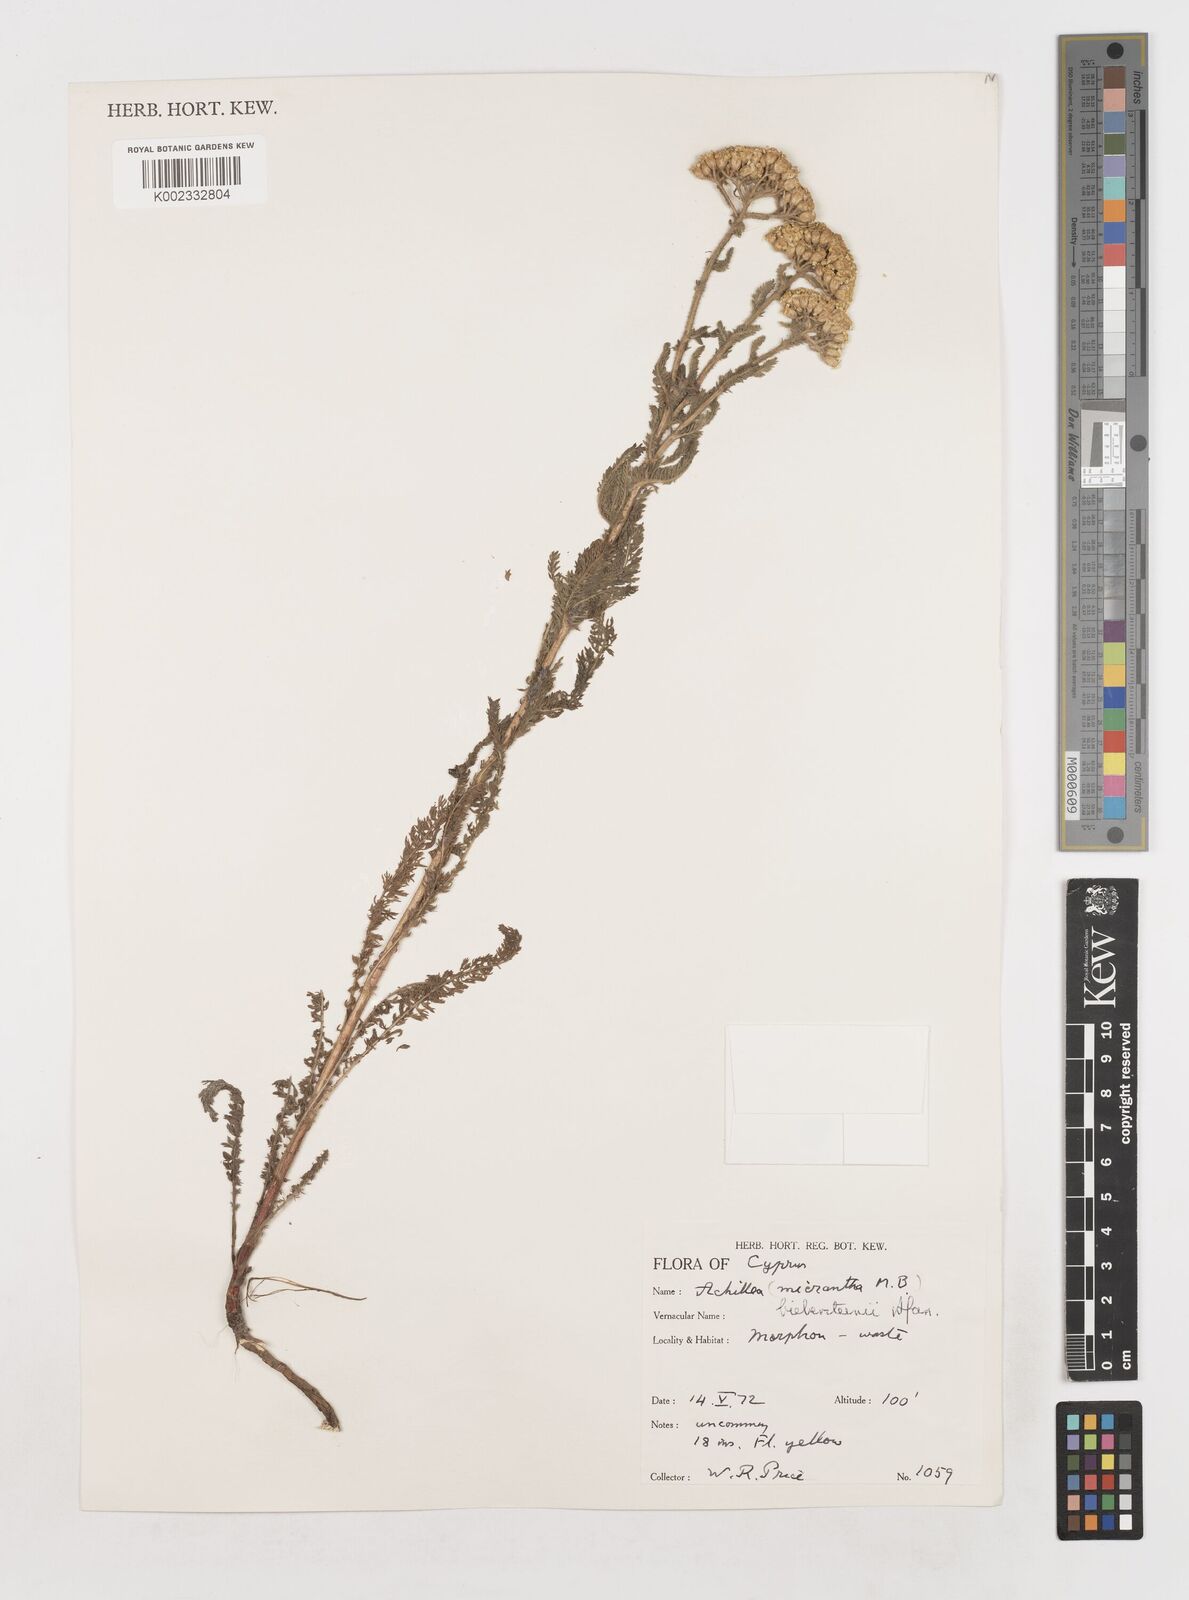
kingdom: Plantae
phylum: Tracheophyta
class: Magnoliopsida
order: Asterales
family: Asteraceae
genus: Achillea
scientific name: Achillea micrantha
